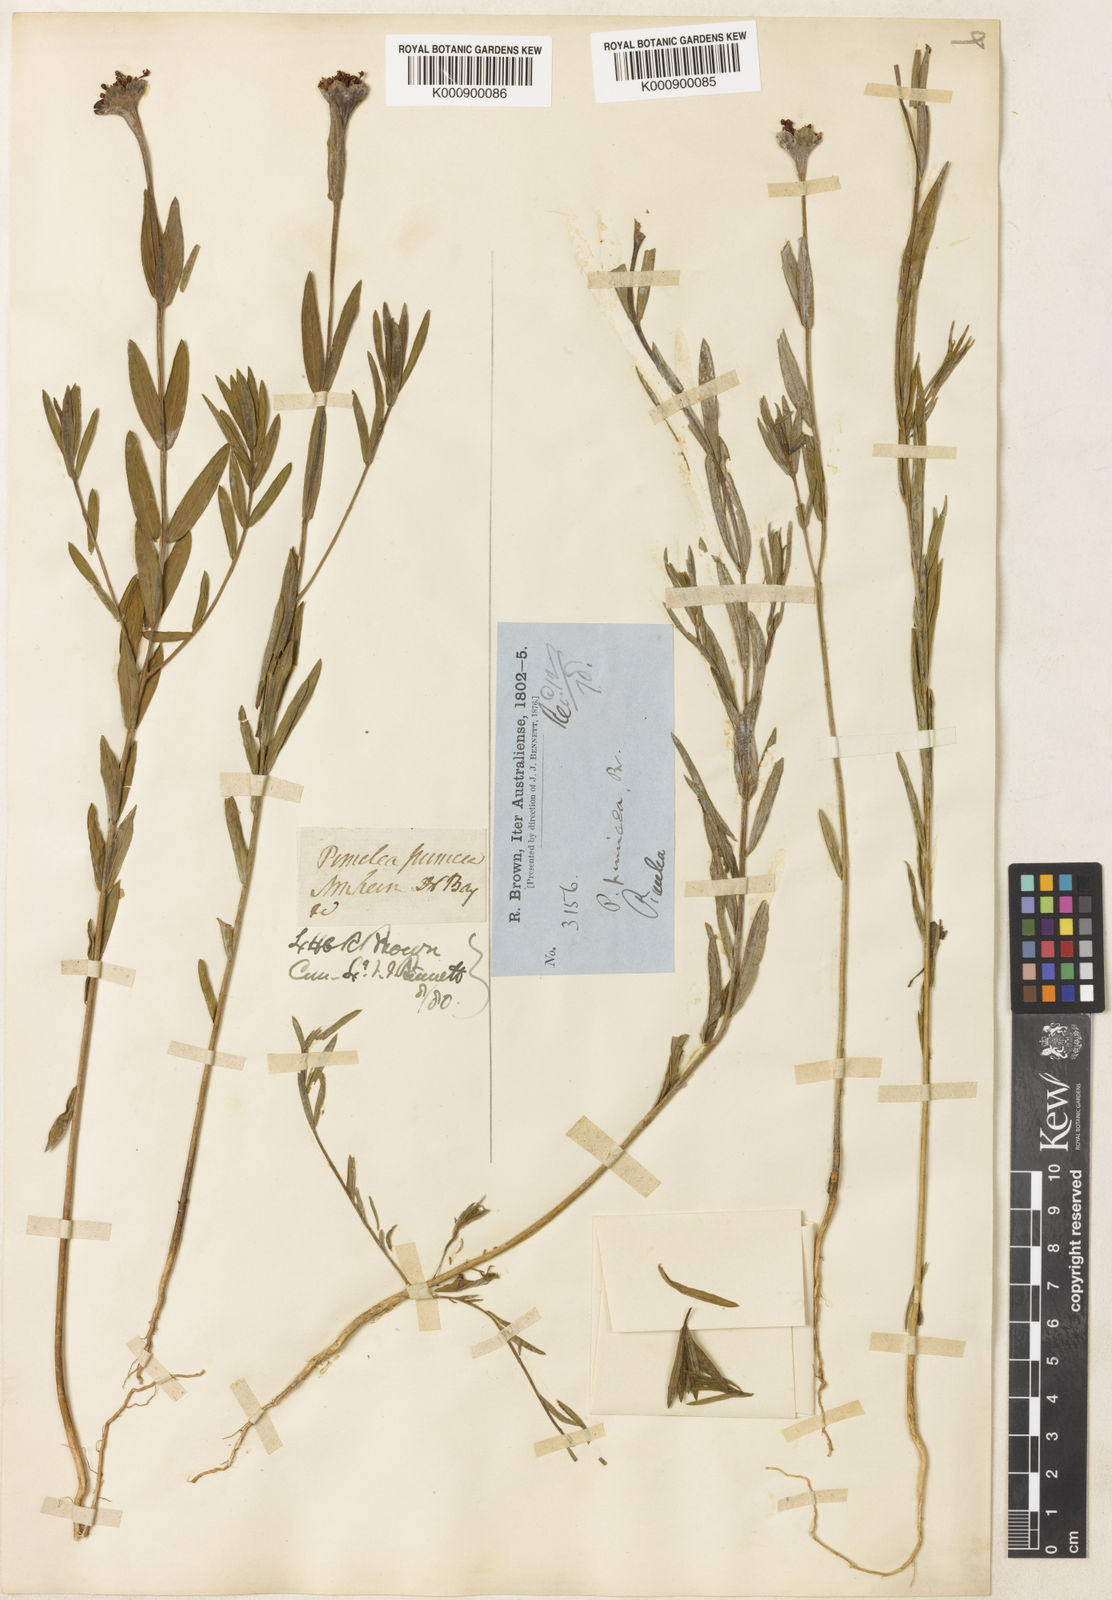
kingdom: Plantae
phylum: Tracheophyta
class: Magnoliopsida
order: Malvales
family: Thymelaeaceae
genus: Pimelea
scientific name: Pimelea punicea
